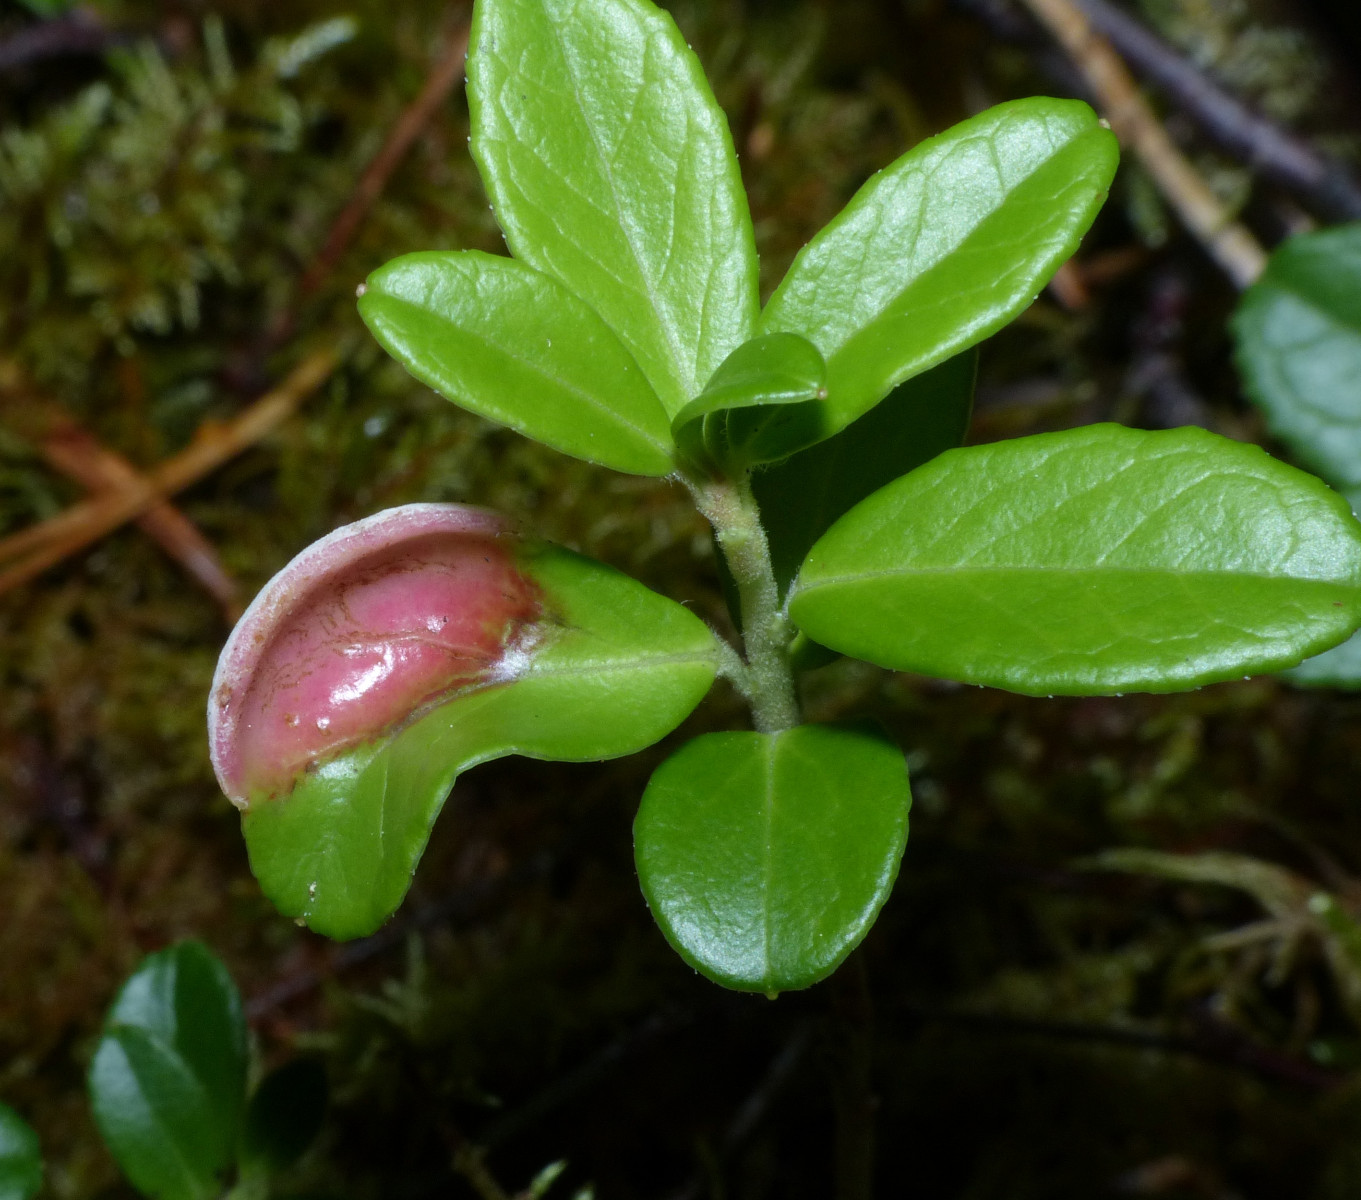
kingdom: Fungi
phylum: Basidiomycota
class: Exobasidiomycetes
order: Exobasidiales
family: Exobasidiaceae
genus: Exobasidium
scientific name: Exobasidium vaccinii
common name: tyttebærblad-bøllesvamp
